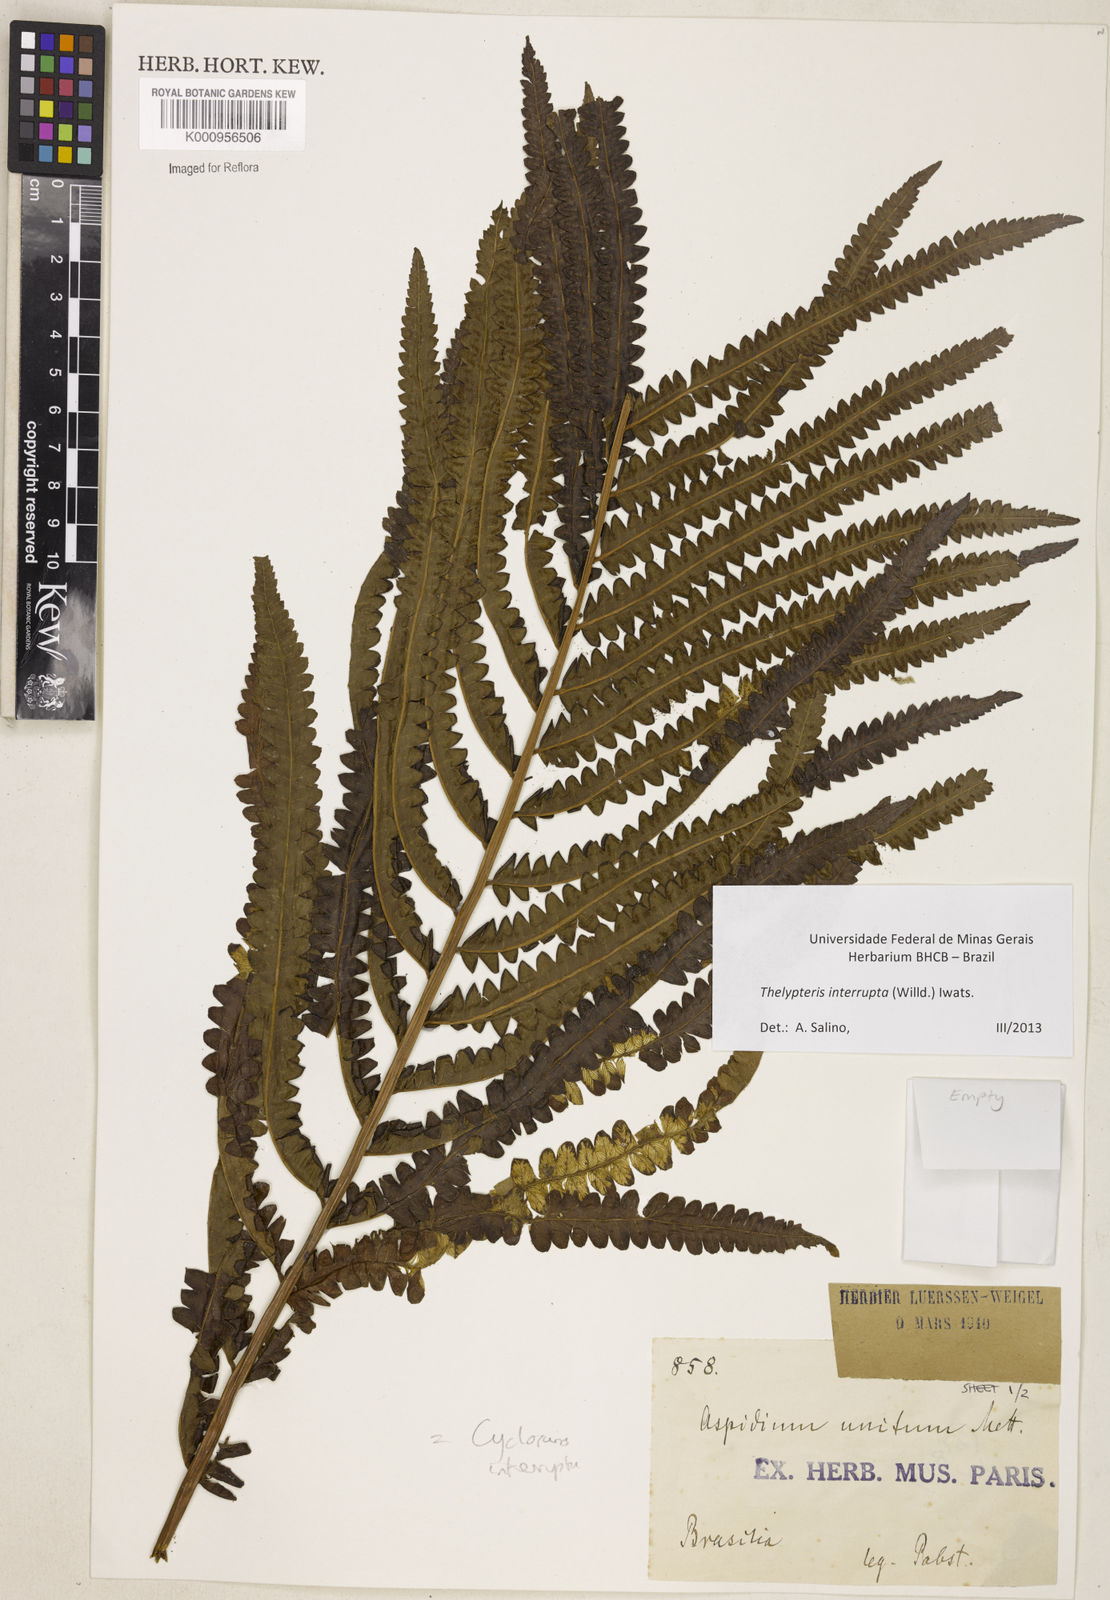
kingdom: Plantae
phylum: Tracheophyta
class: Polypodiopsida
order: Polypodiales
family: Thelypteridaceae
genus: Cyclosorus
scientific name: Cyclosorus interruptus
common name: Neke fern
